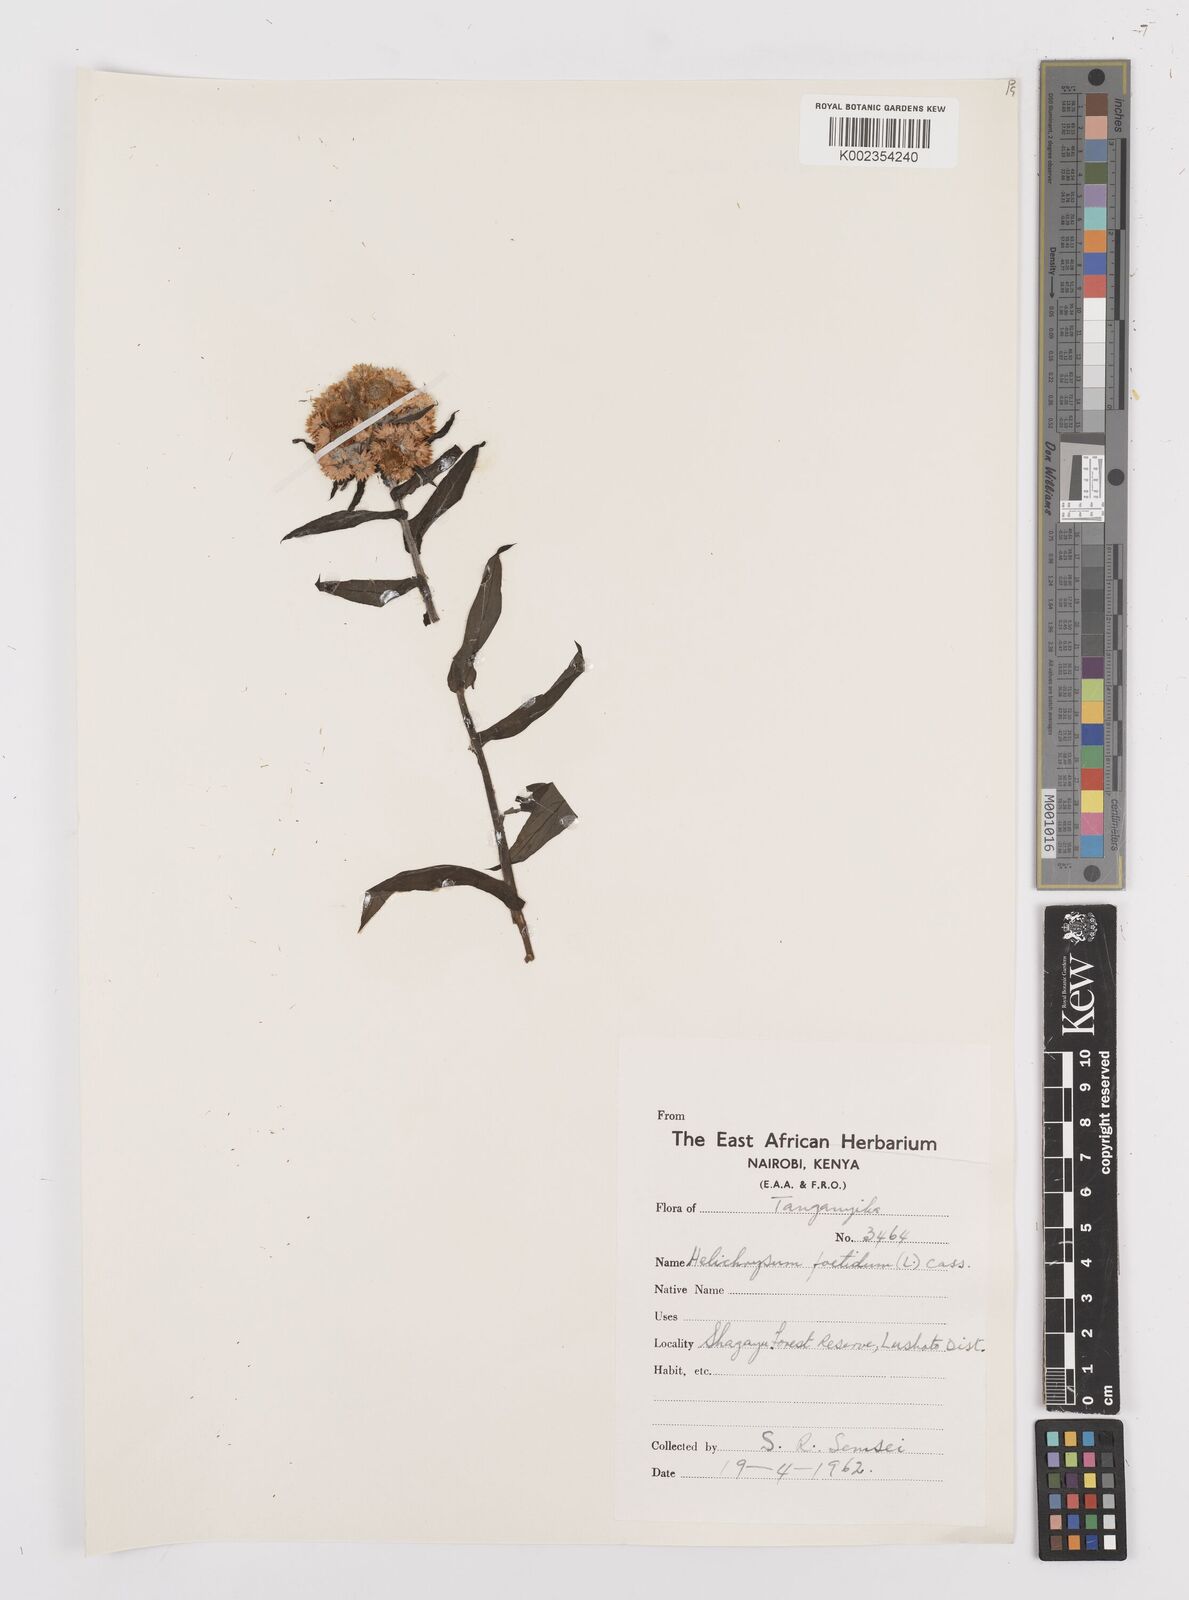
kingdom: Plantae
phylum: Tracheophyta
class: Magnoliopsida
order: Asterales
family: Asteraceae
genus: Helichrysum
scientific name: Helichrysum
